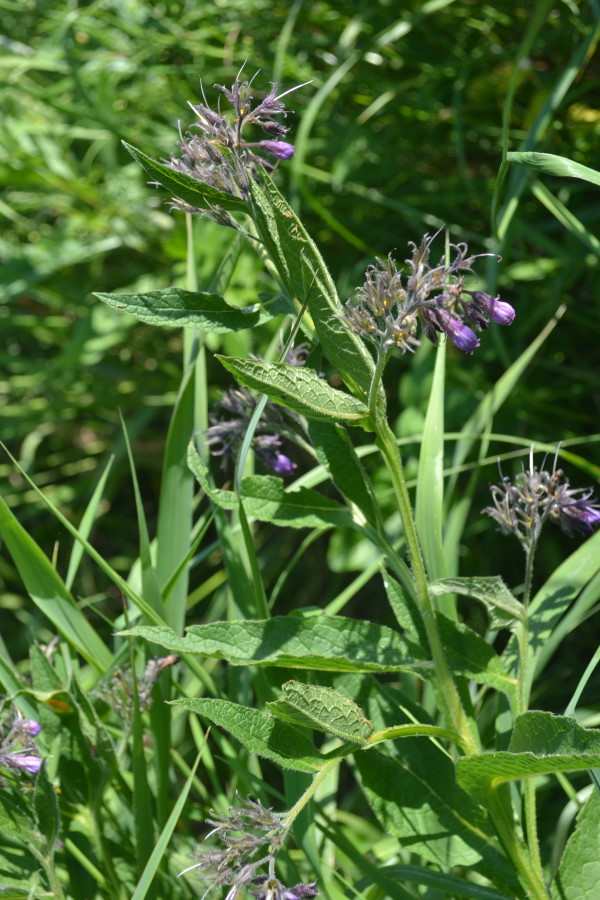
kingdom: Plantae
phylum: Tracheophyta
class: Magnoliopsida
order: Boraginales
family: Boraginaceae
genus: Symphytum
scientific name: Symphytum officinale
